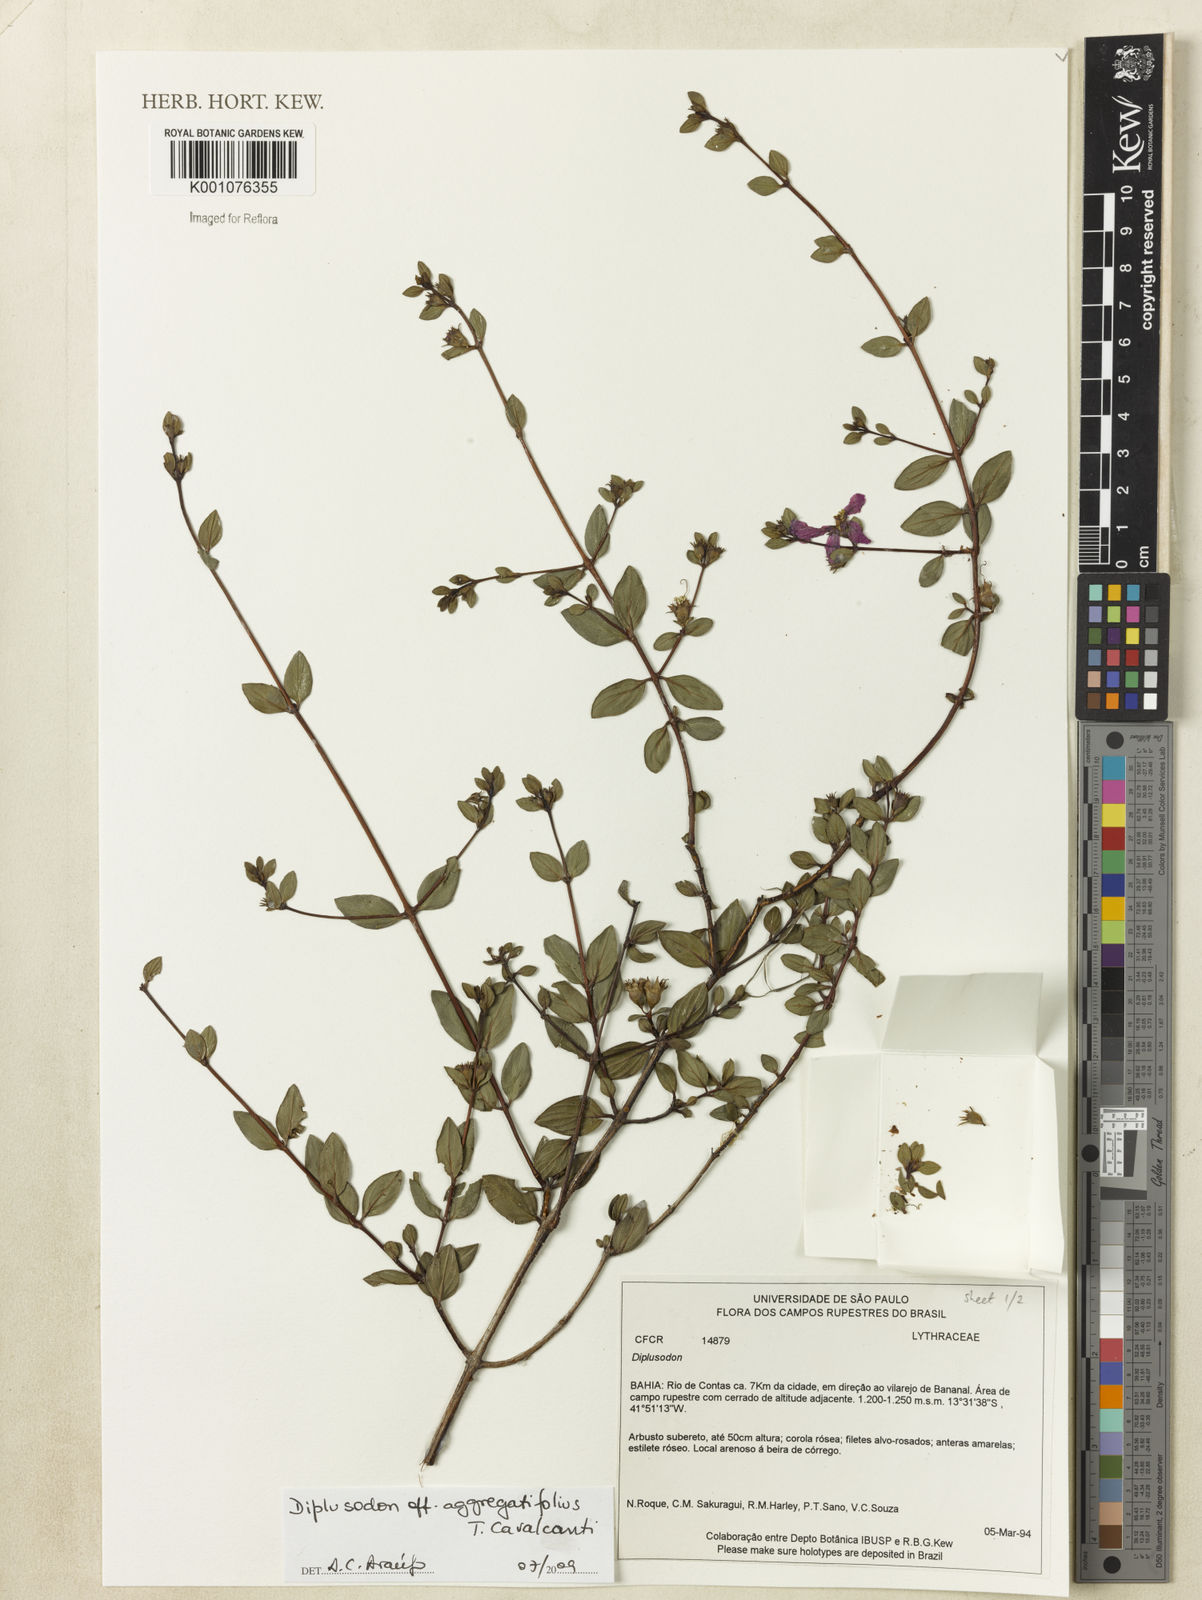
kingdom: Plantae
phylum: Tracheophyta
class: Magnoliopsida
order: Myrtales
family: Lythraceae
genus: Diplusodon
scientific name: Diplusodon aggregatifolius
